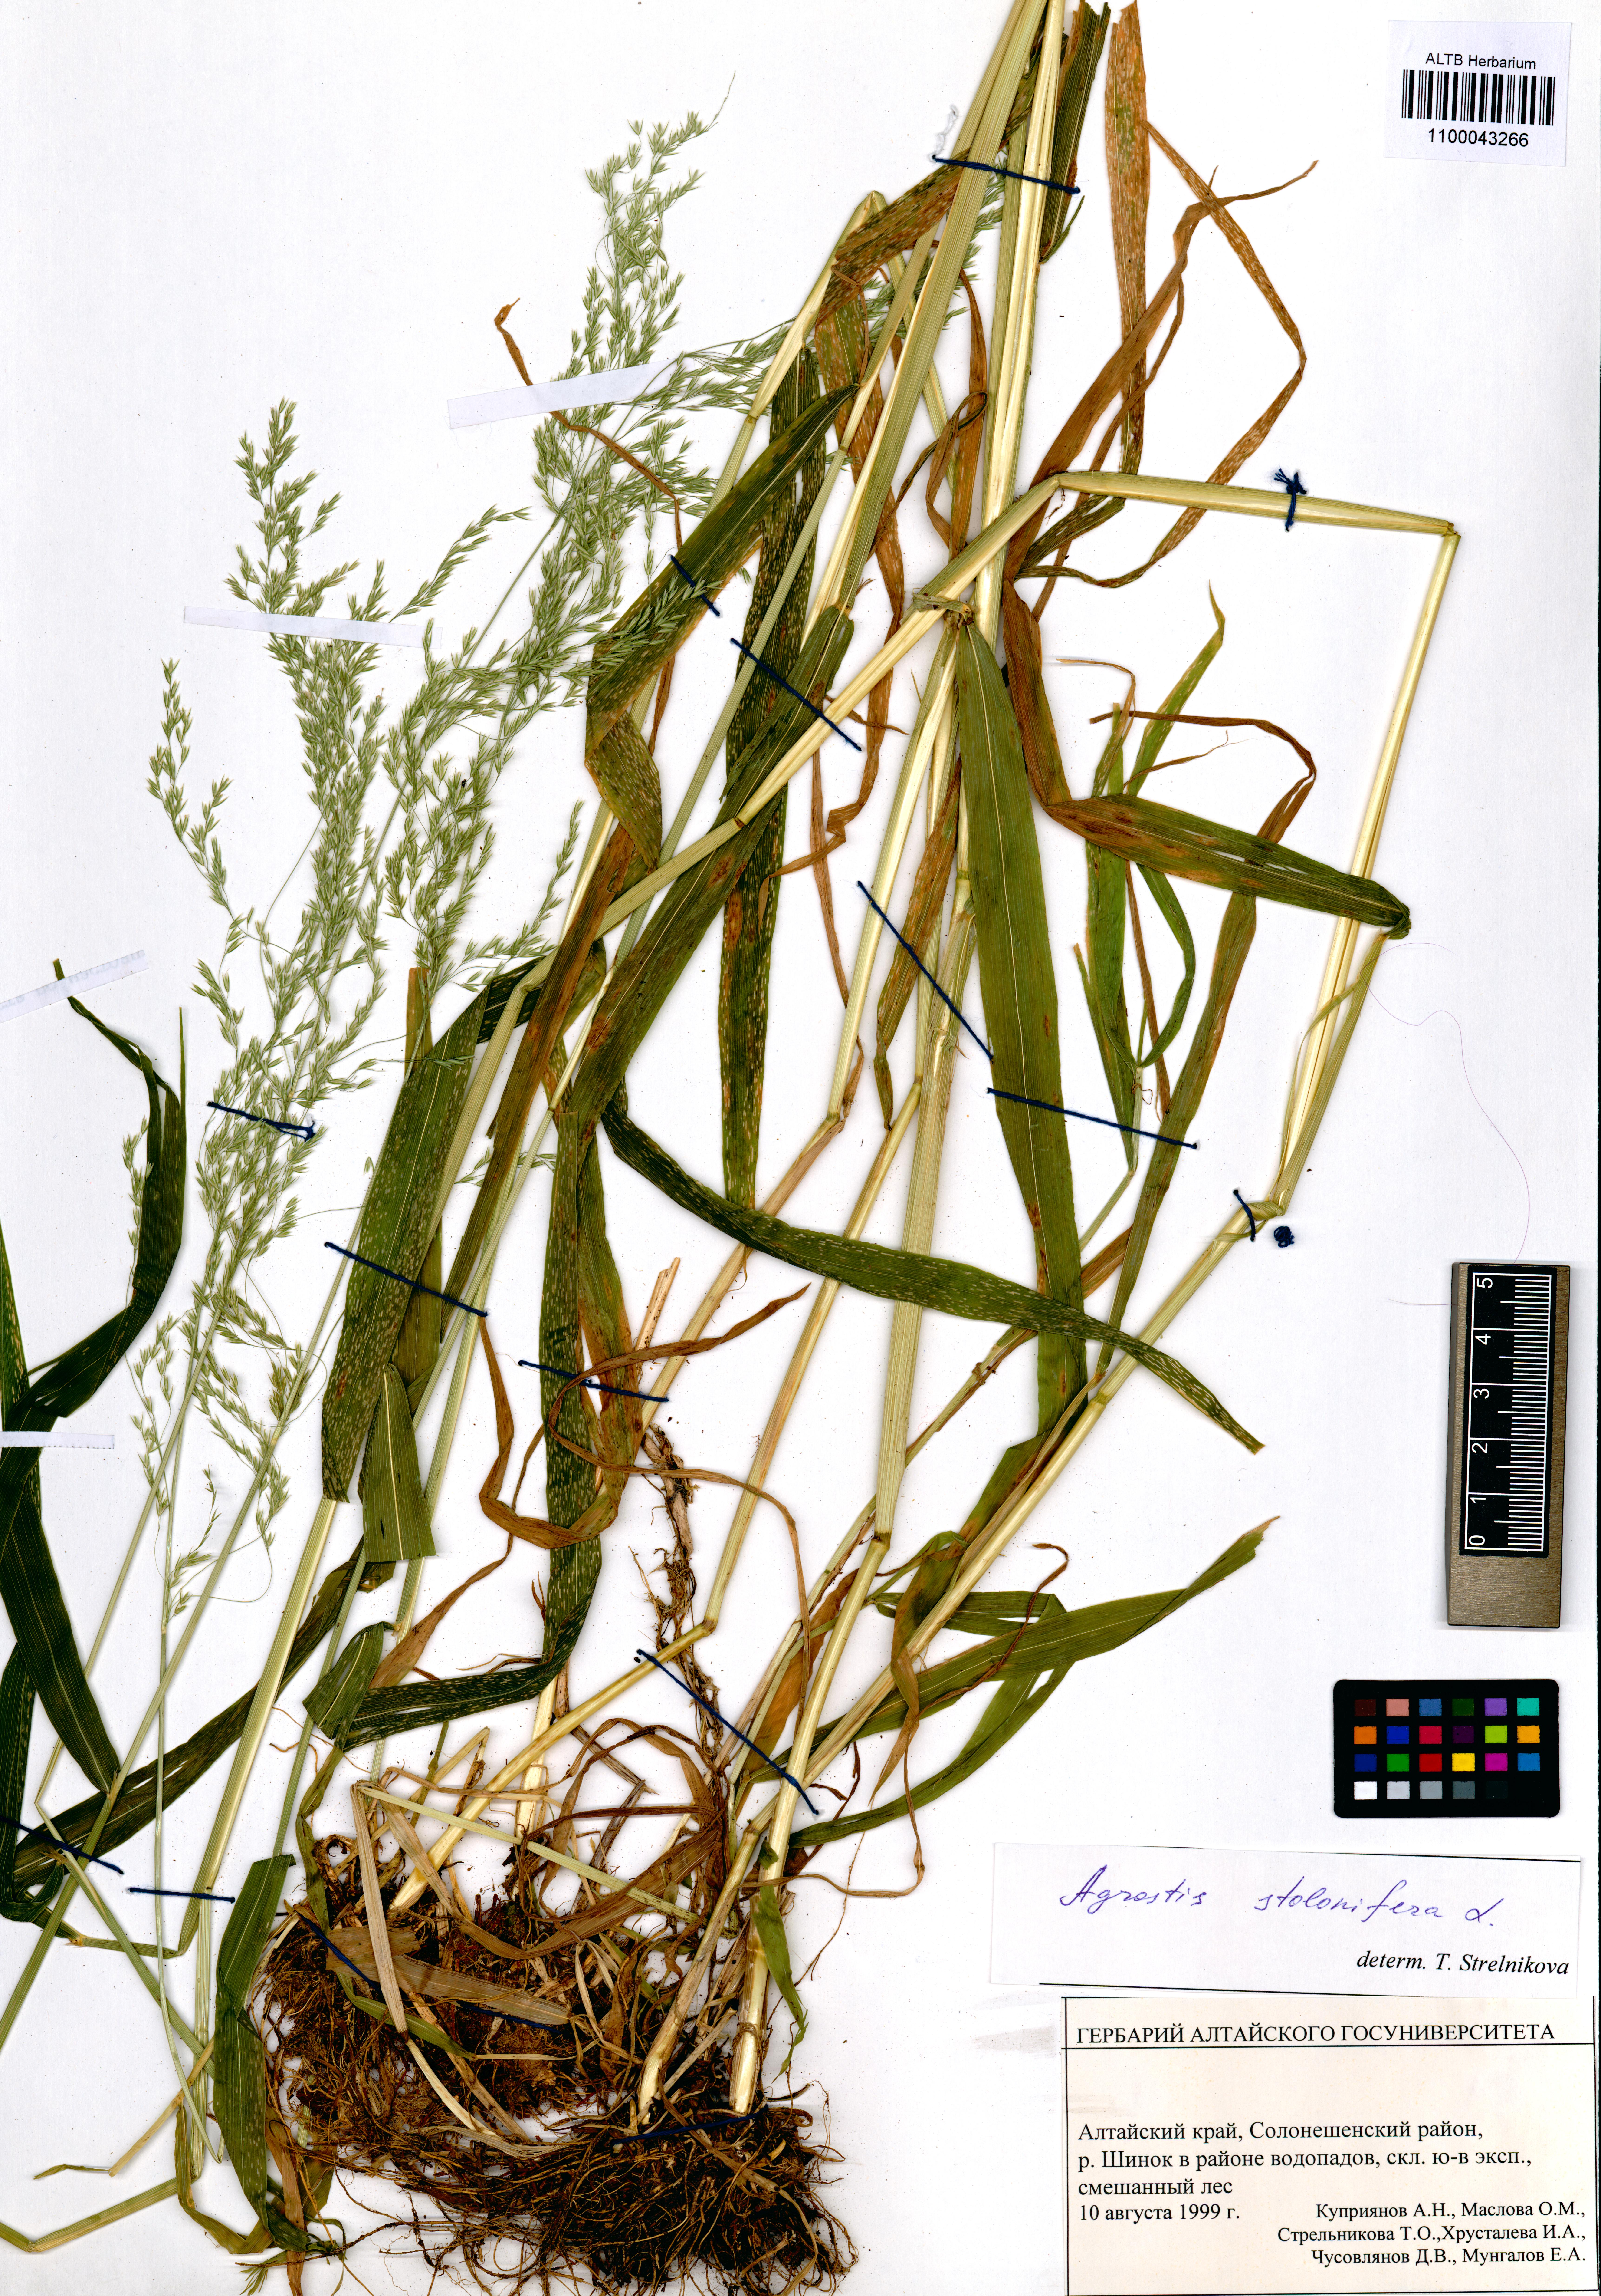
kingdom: Plantae
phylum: Tracheophyta
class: Liliopsida
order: Poales
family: Poaceae
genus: Cinna
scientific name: Cinna latifolia
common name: Drooping woodreed
